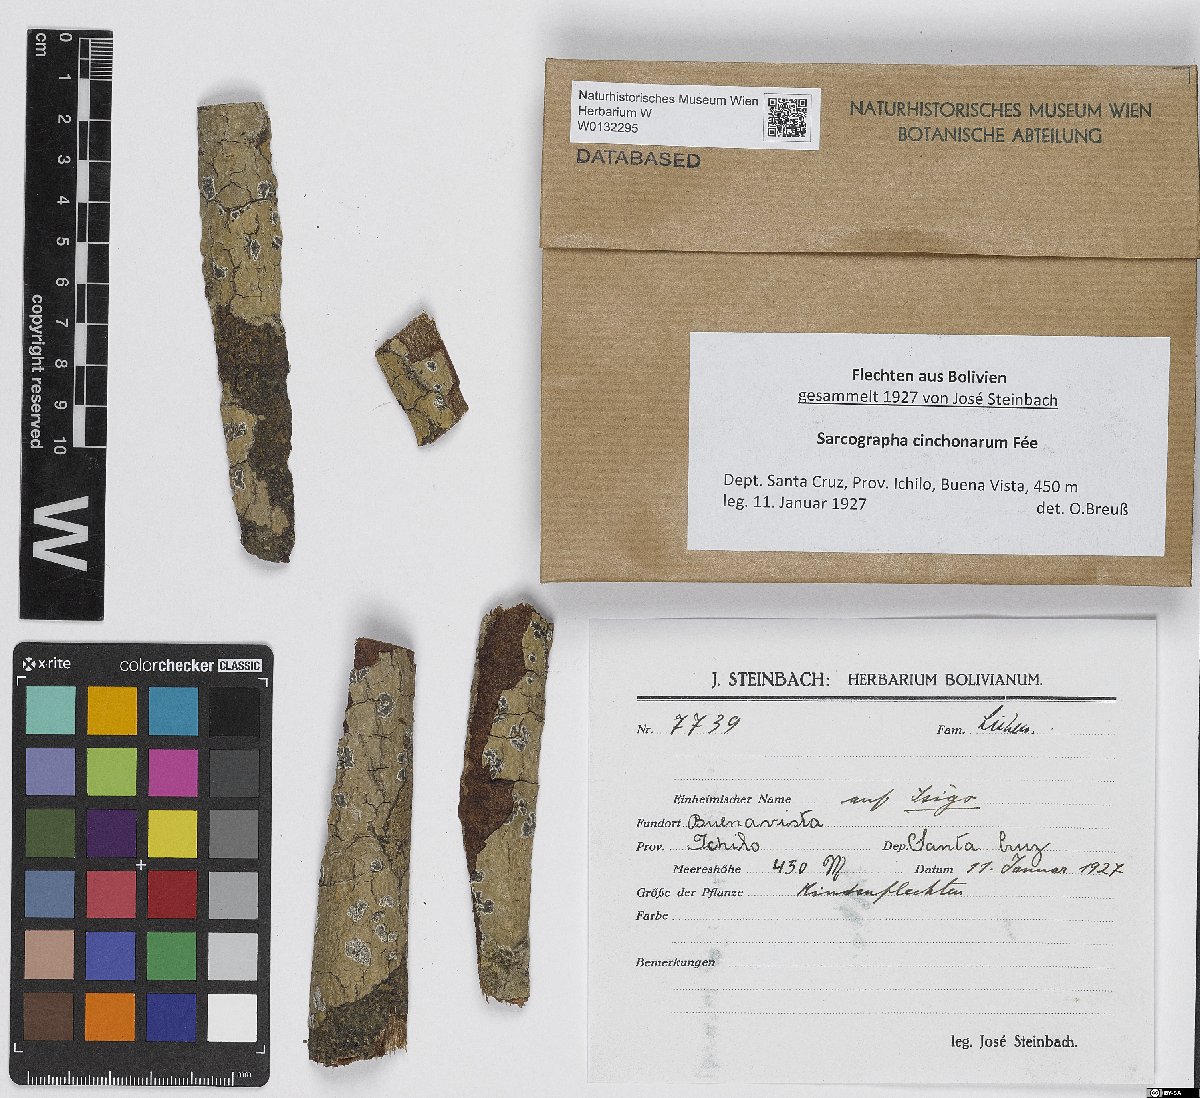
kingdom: Fungi
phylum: Ascomycota
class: Lecanoromycetes
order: Ostropales
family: Graphidaceae
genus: Sarcographa
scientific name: Sarcographa cinchonarum
